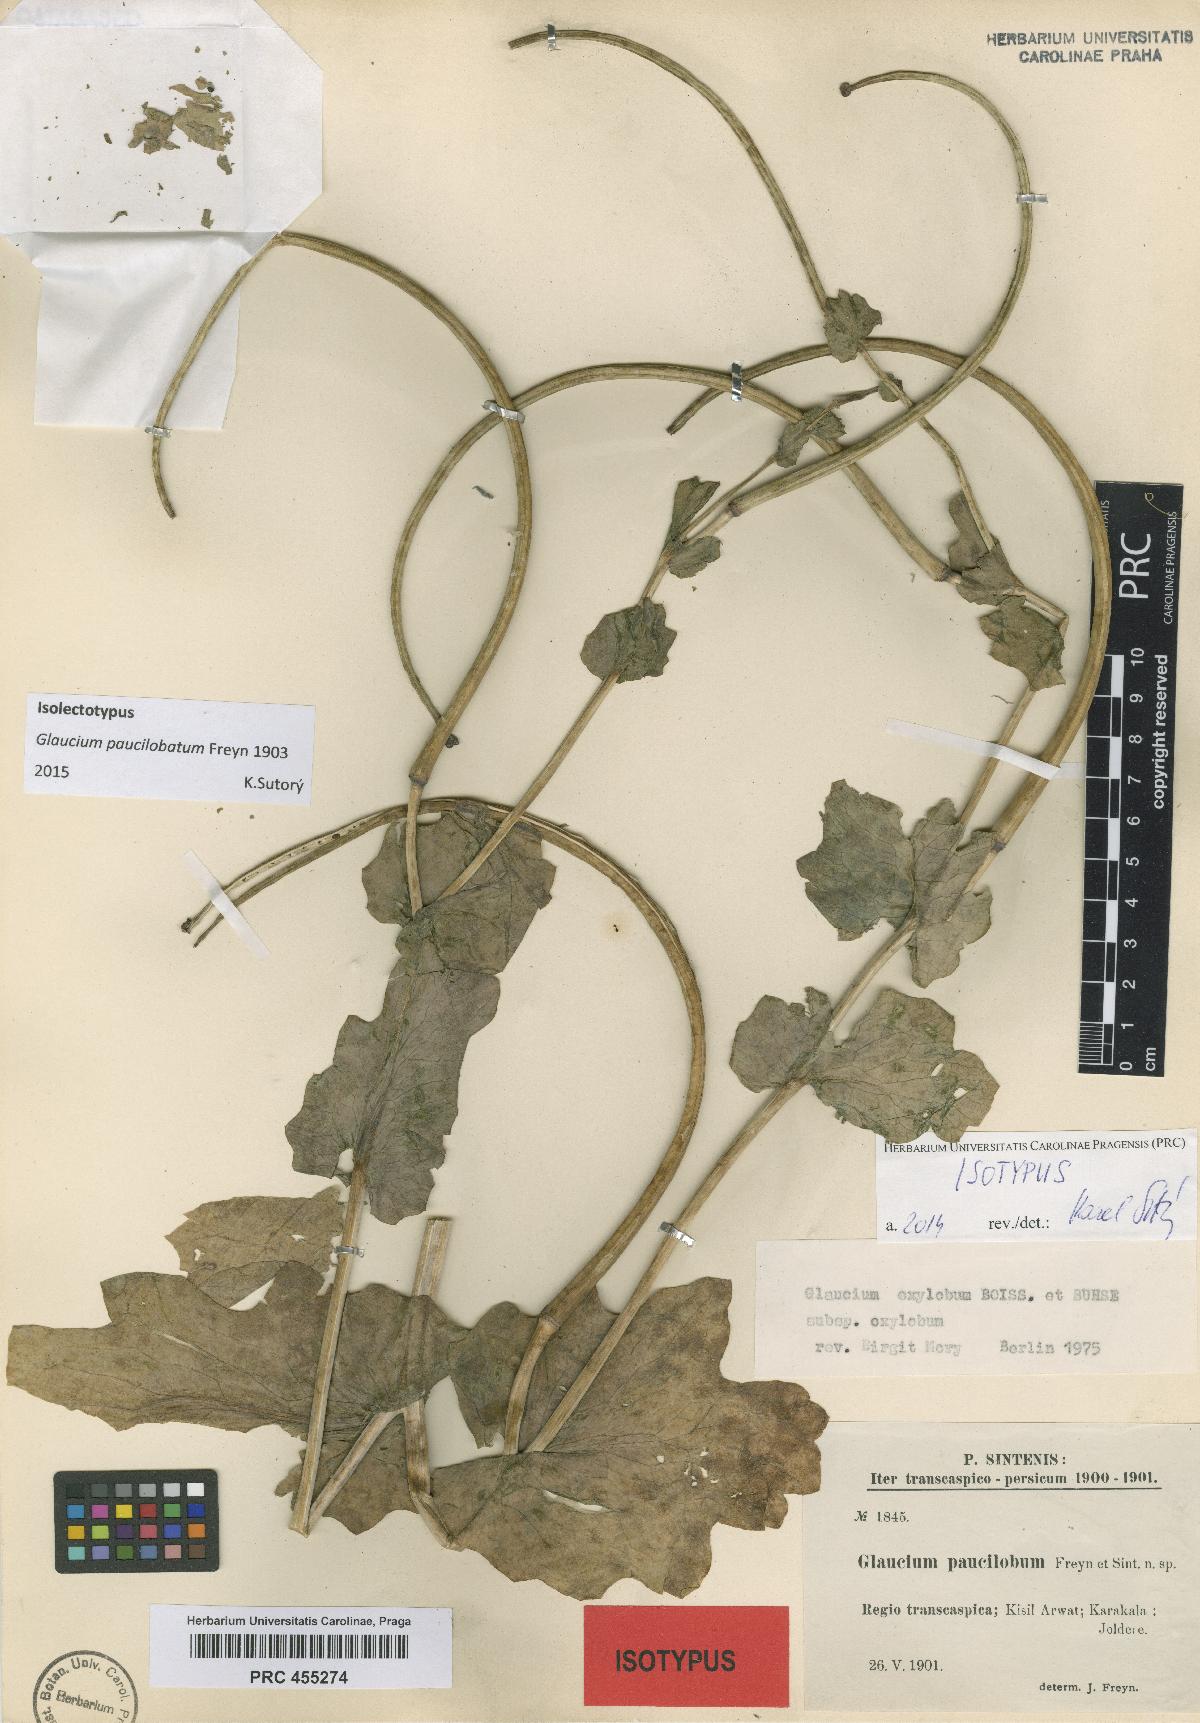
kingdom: Plantae
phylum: Tracheophyta
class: Magnoliopsida
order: Ranunculales
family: Papaveraceae
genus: Glaucium
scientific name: Glaucium paucilobatum
